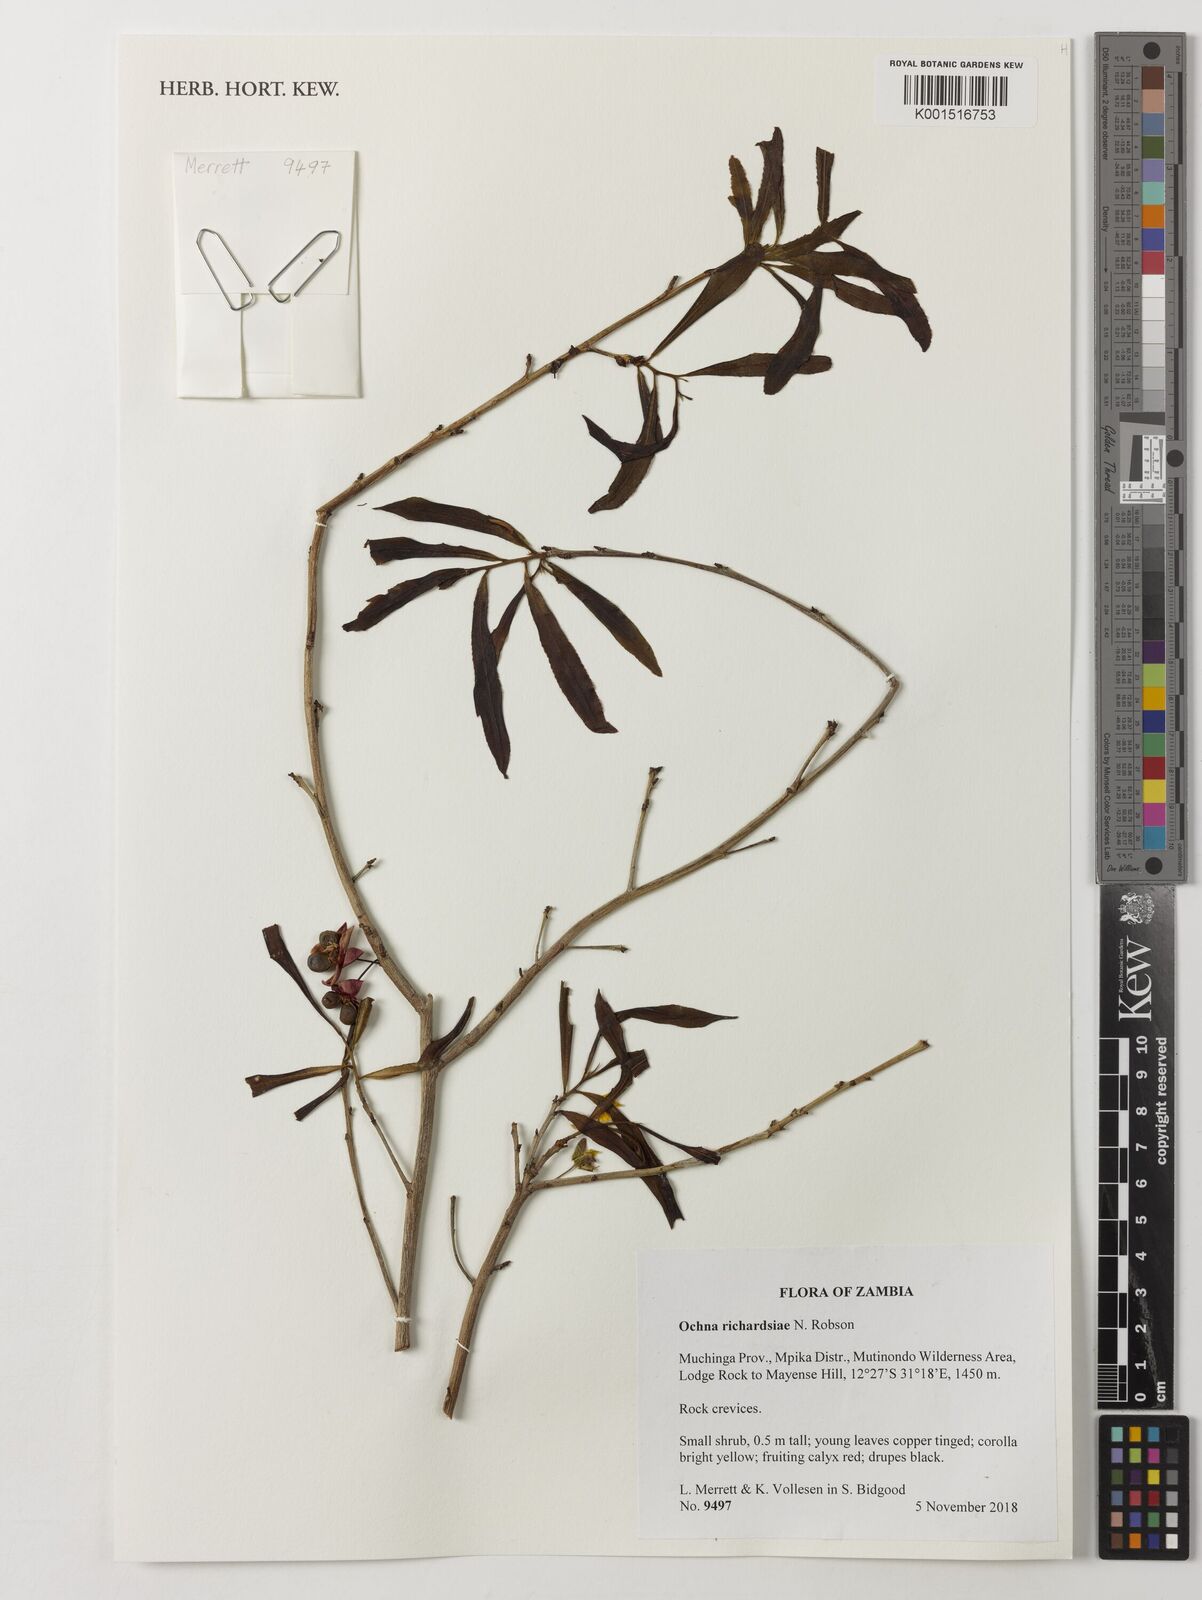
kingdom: Plantae
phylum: Tracheophyta
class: Magnoliopsida
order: Malpighiales
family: Ochnaceae
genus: Ochna
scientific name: Ochna richardsiae
